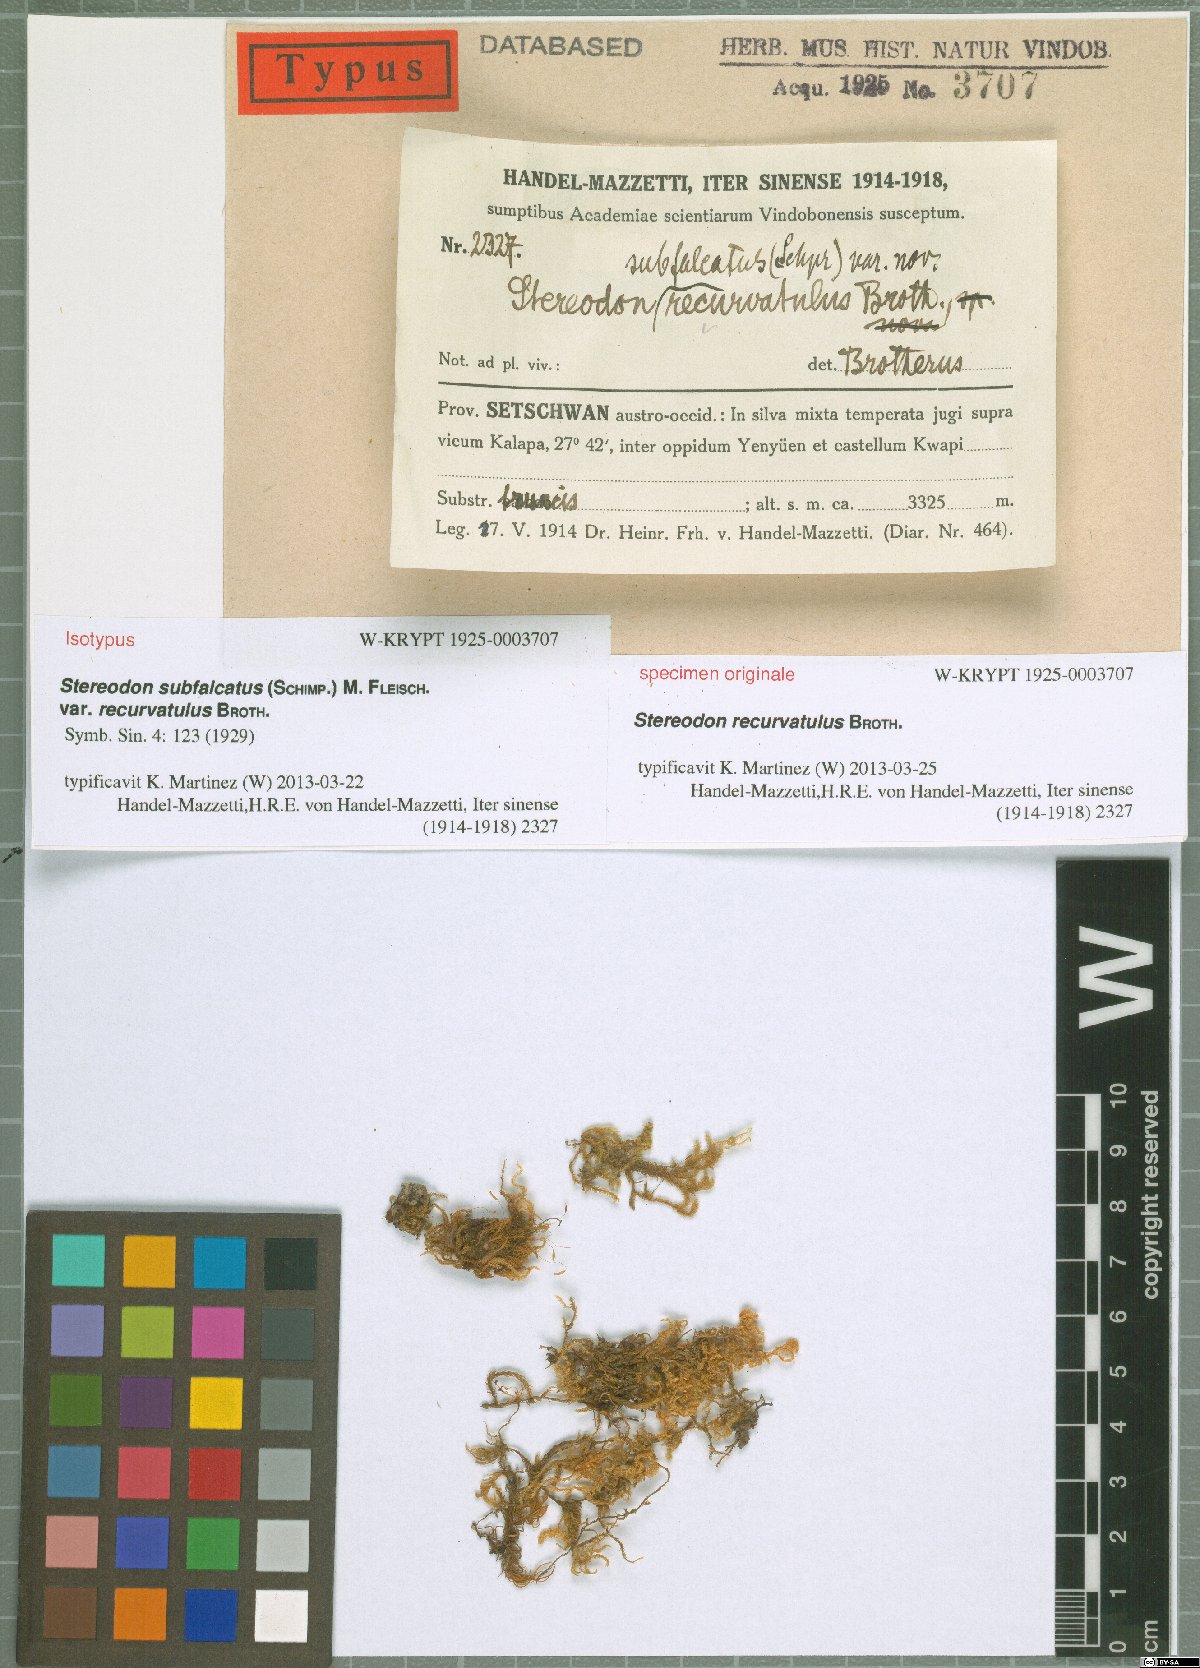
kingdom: Plantae
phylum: Bryophyta
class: Bryopsida
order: Hypnales
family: Pylaisiaceae
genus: Pylaisia
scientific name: Pylaisia extenta
